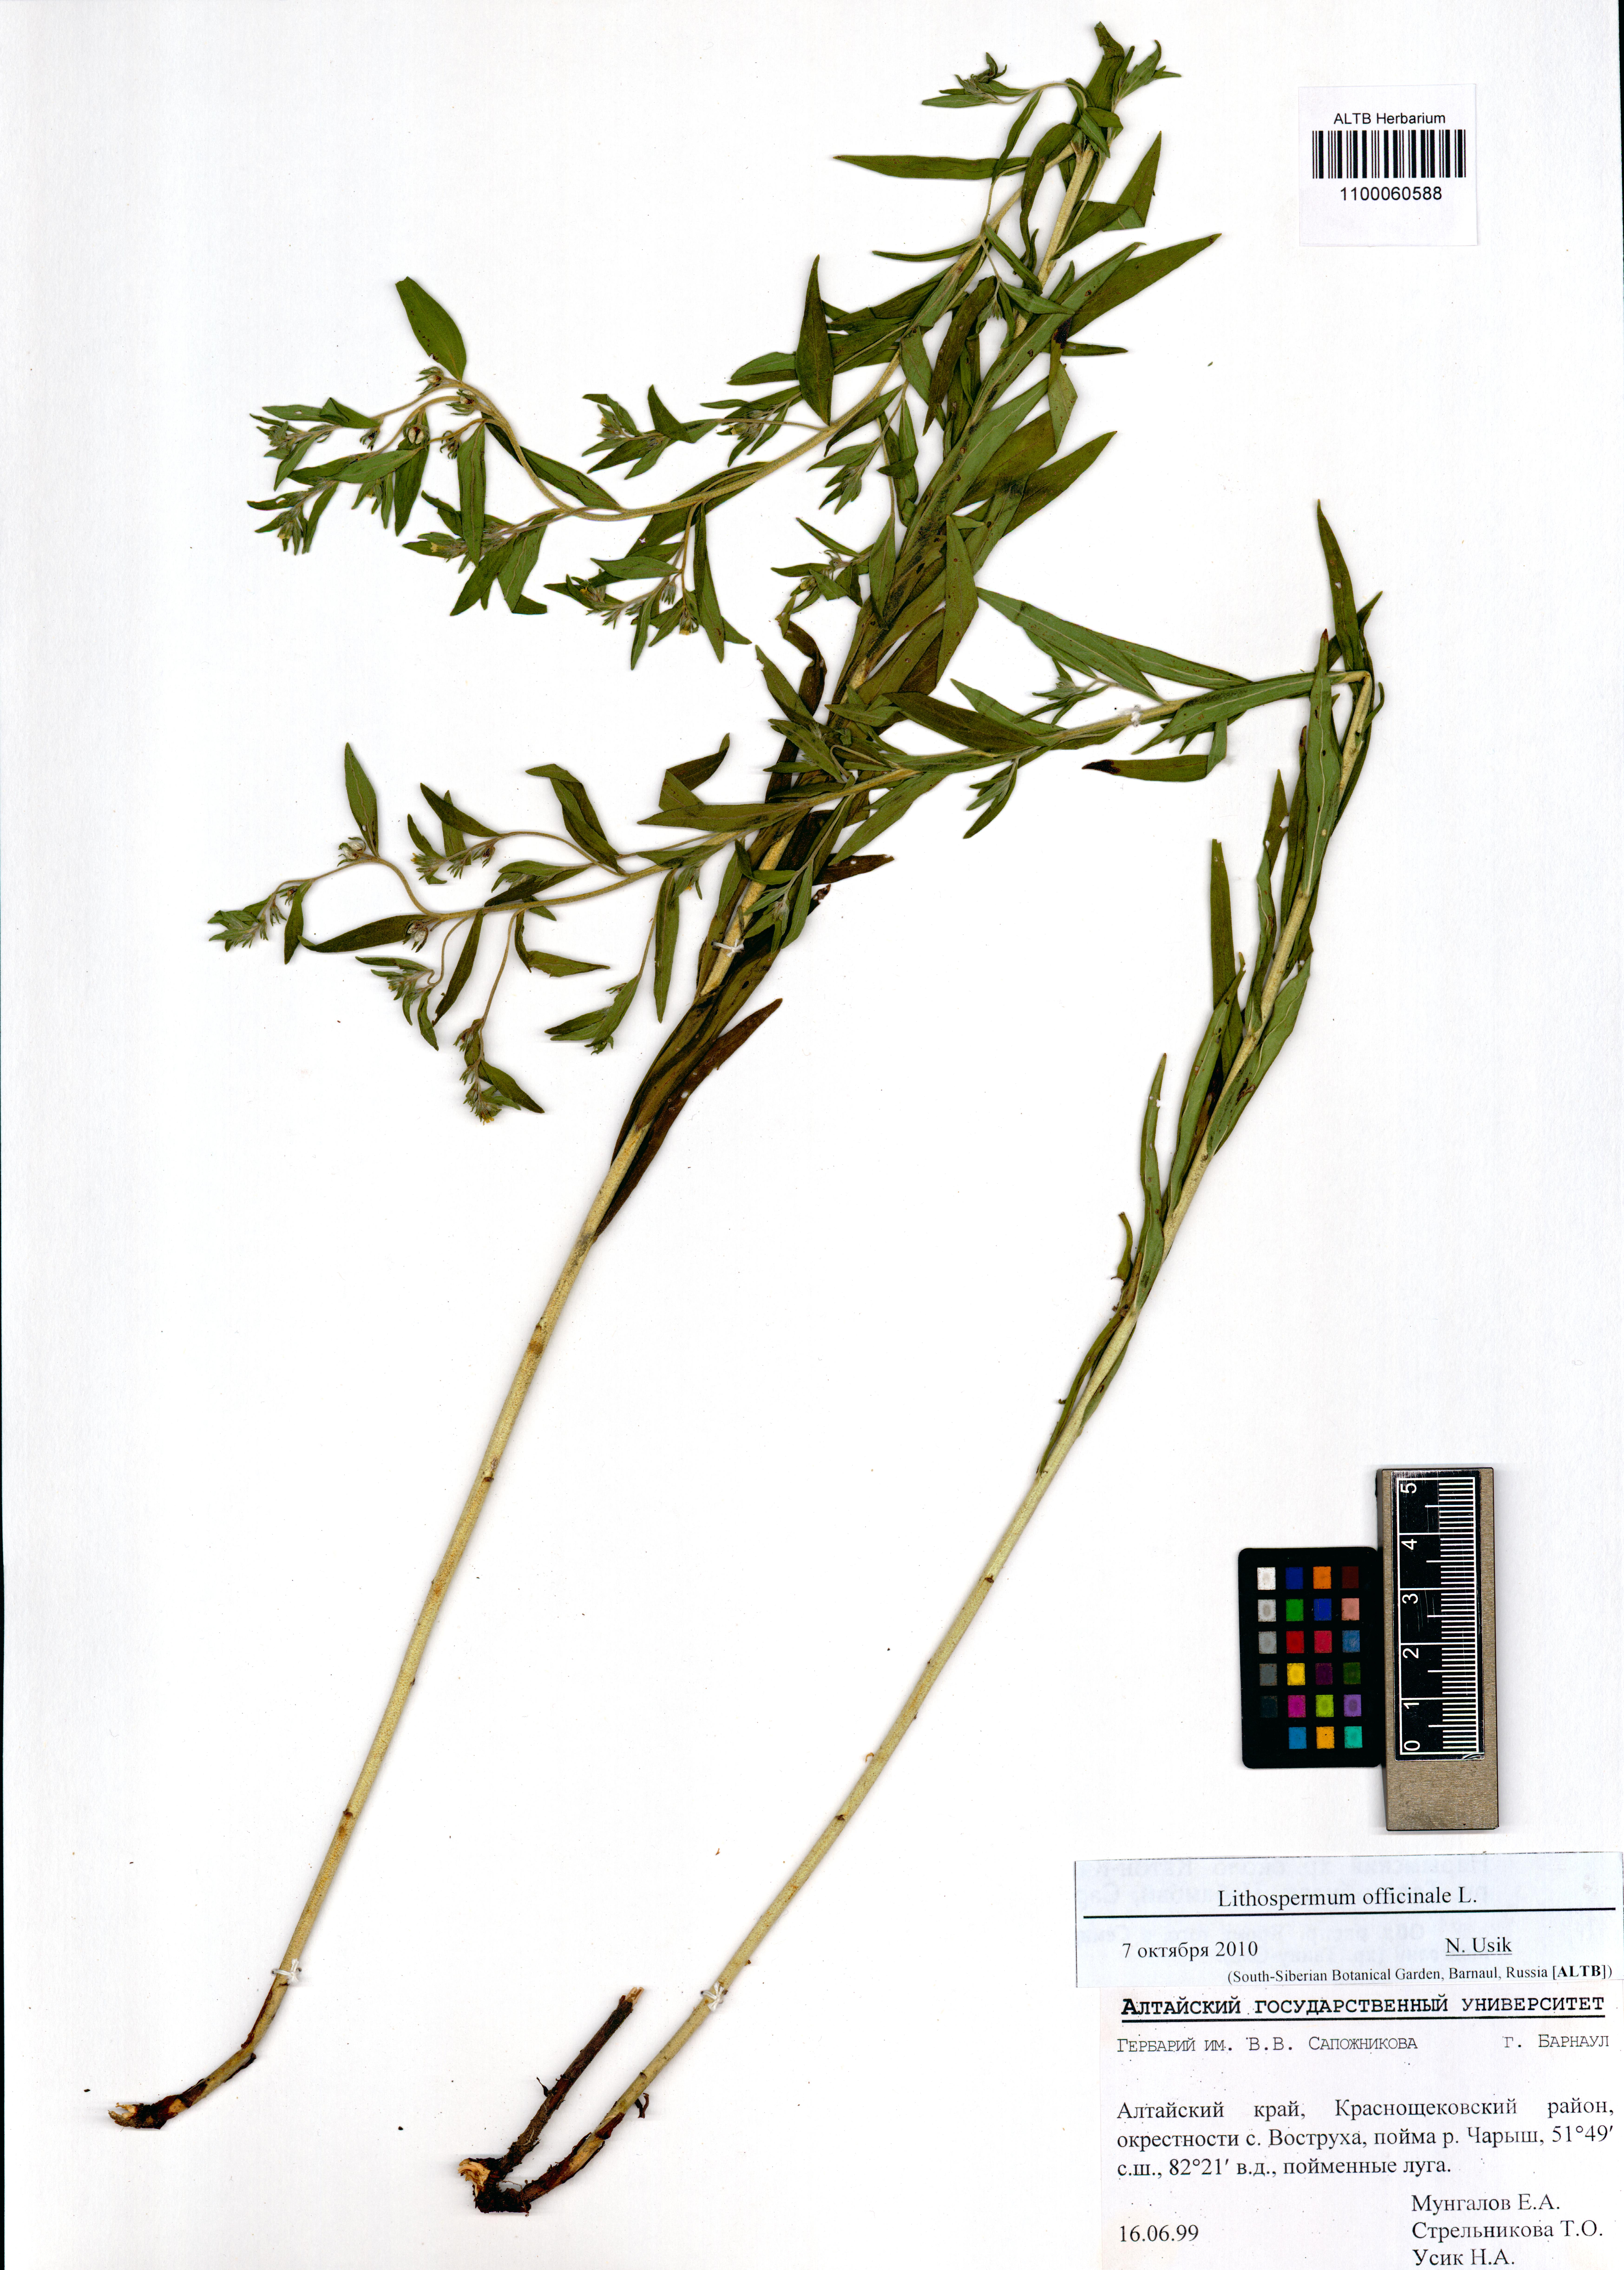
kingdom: Plantae
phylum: Tracheophyta
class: Magnoliopsida
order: Boraginales
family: Boraginaceae
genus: Lithospermum
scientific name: Lithospermum officinale
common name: Common gromwell
